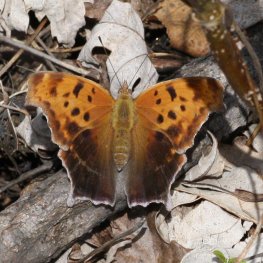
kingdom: Animalia
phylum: Arthropoda
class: Insecta
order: Lepidoptera
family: Nymphalidae
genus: Polygonia
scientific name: Polygonia interrogationis
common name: Question Mark
